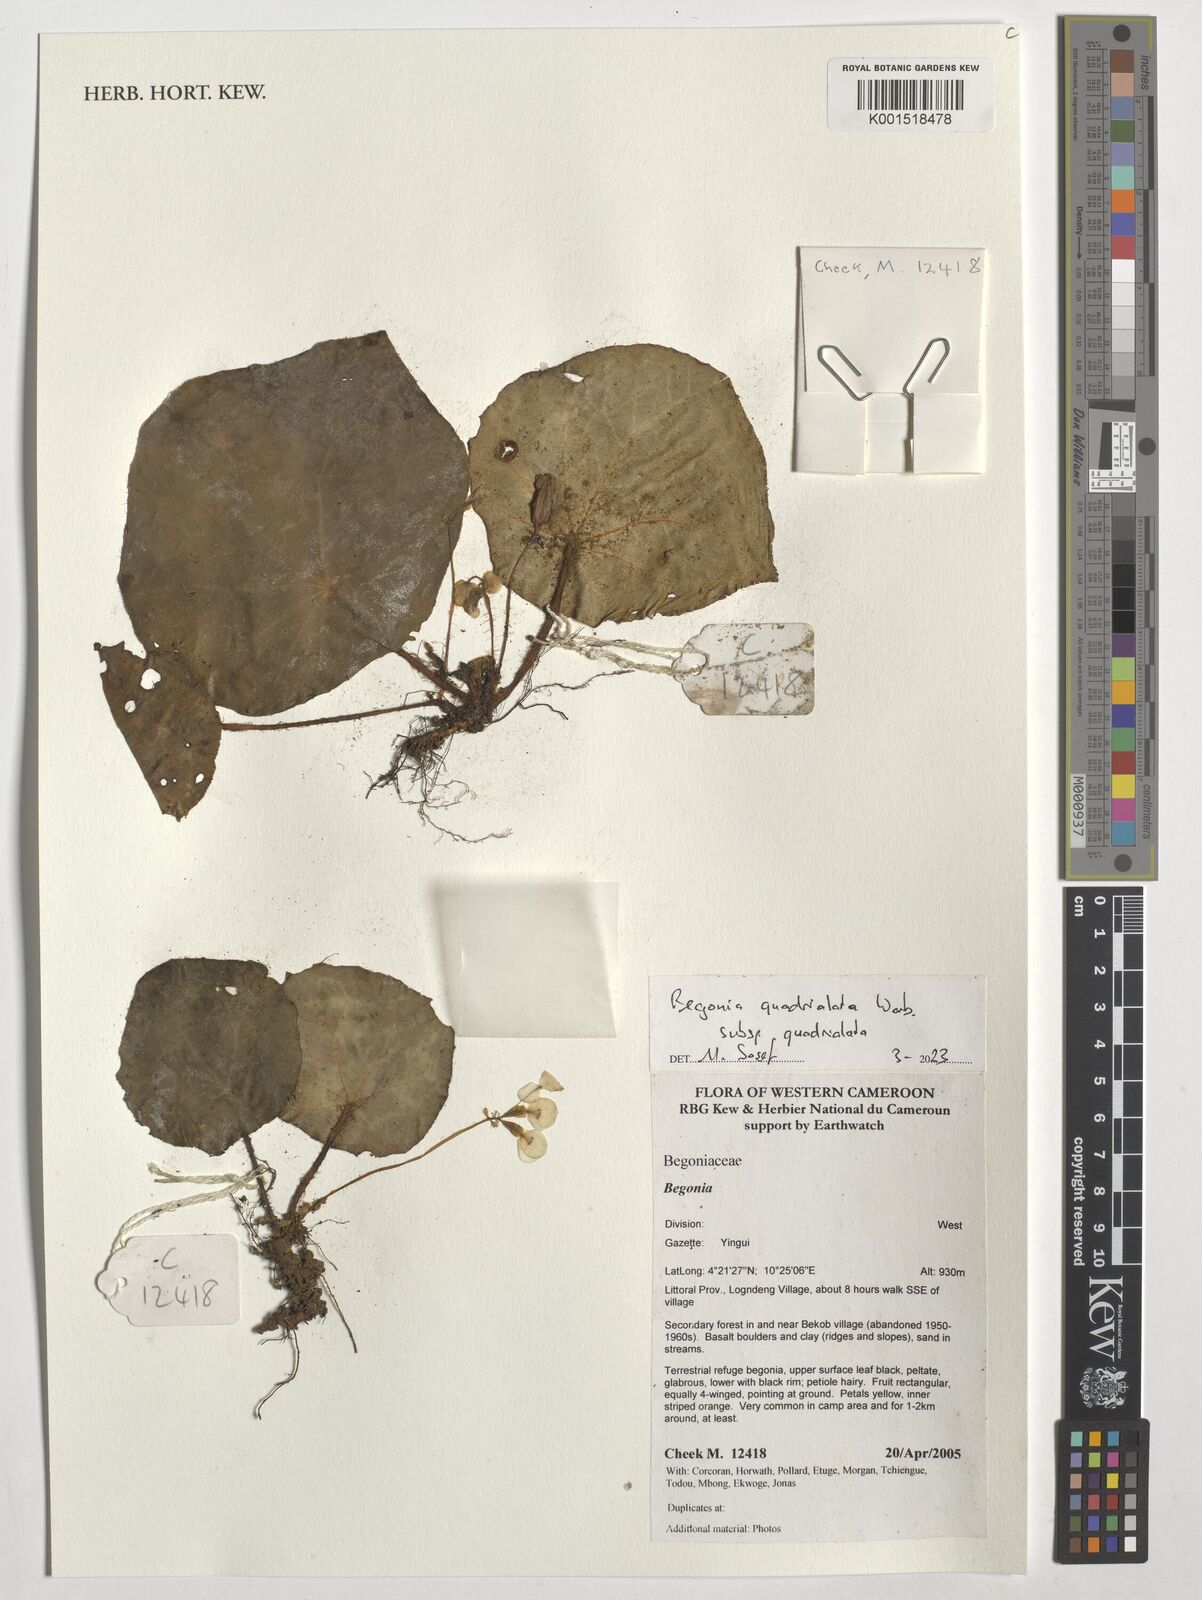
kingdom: Plantae
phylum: Tracheophyta
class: Magnoliopsida
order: Cucurbitales
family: Begoniaceae
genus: Begonia
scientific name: Begonia quadrialata
